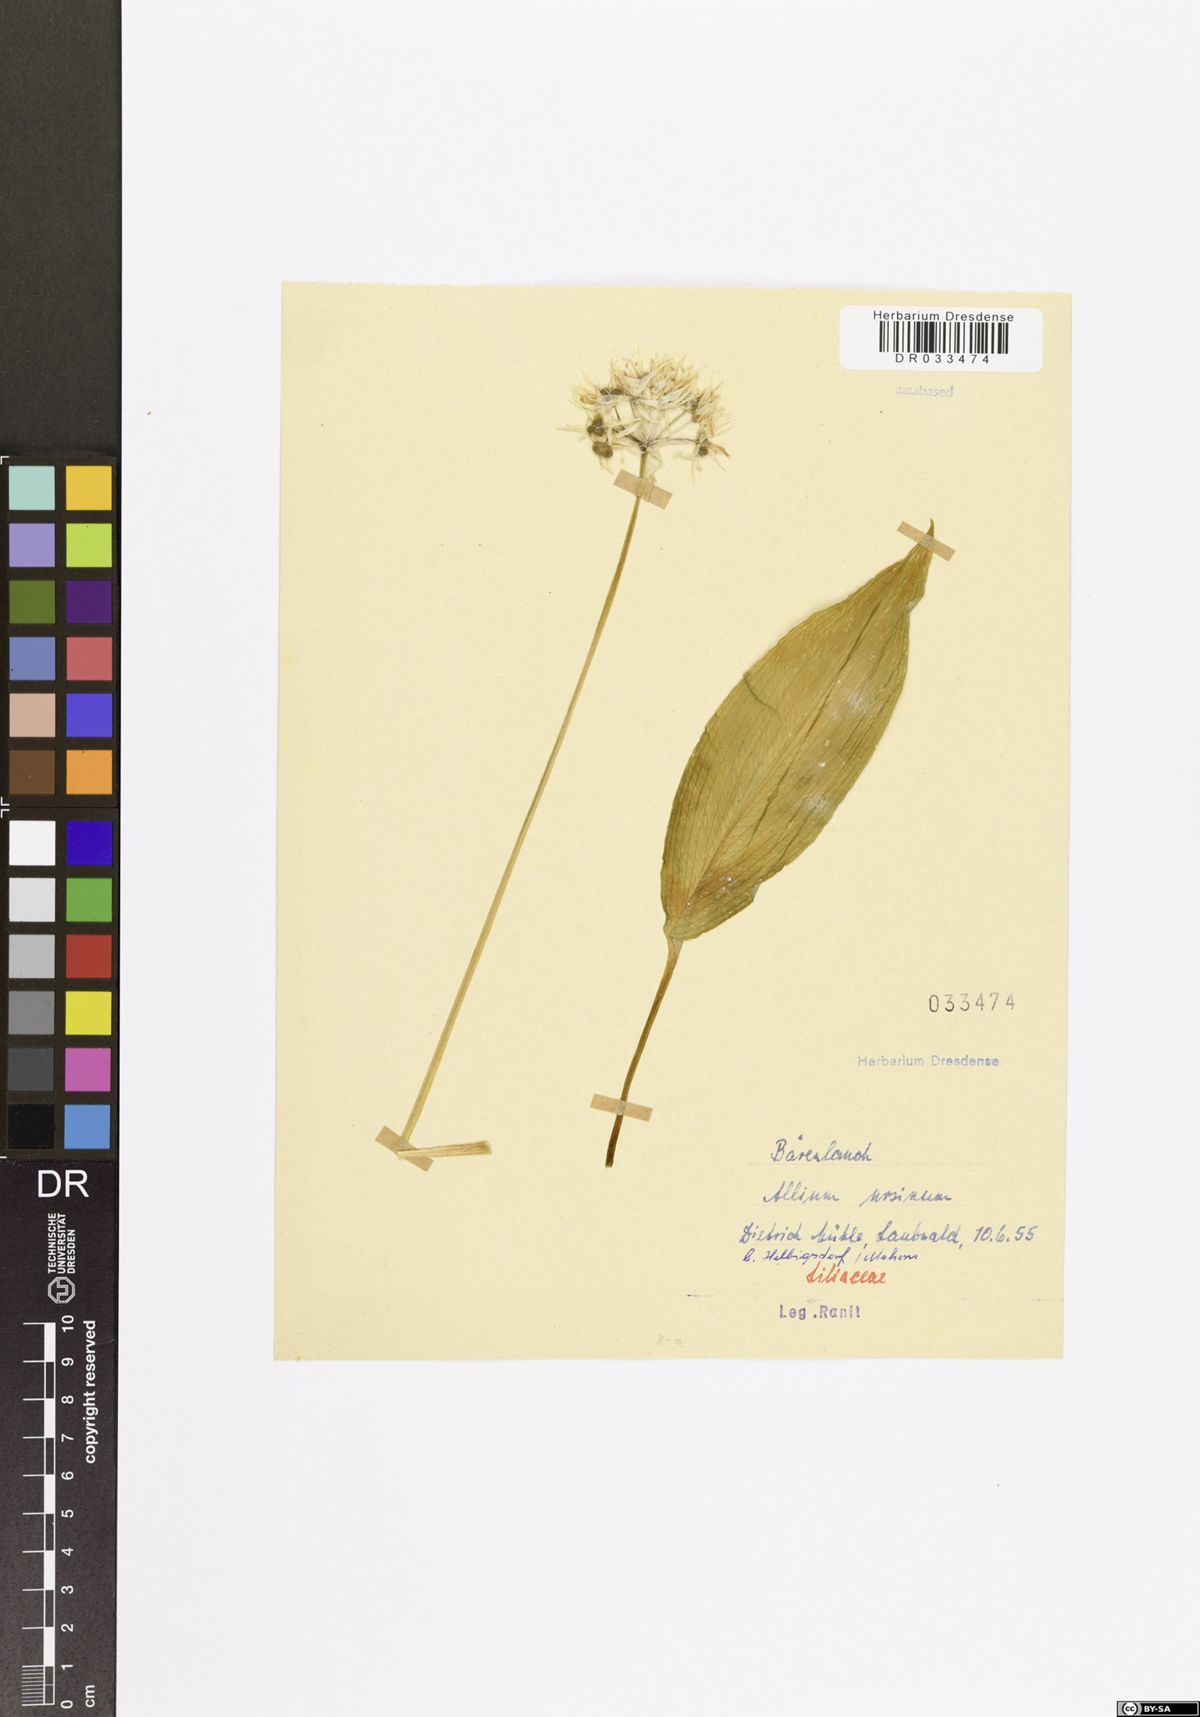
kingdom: Plantae
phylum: Tracheophyta
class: Liliopsida
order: Asparagales
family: Amaryllidaceae
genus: Allium
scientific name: Allium ursinum
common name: Ramsons
